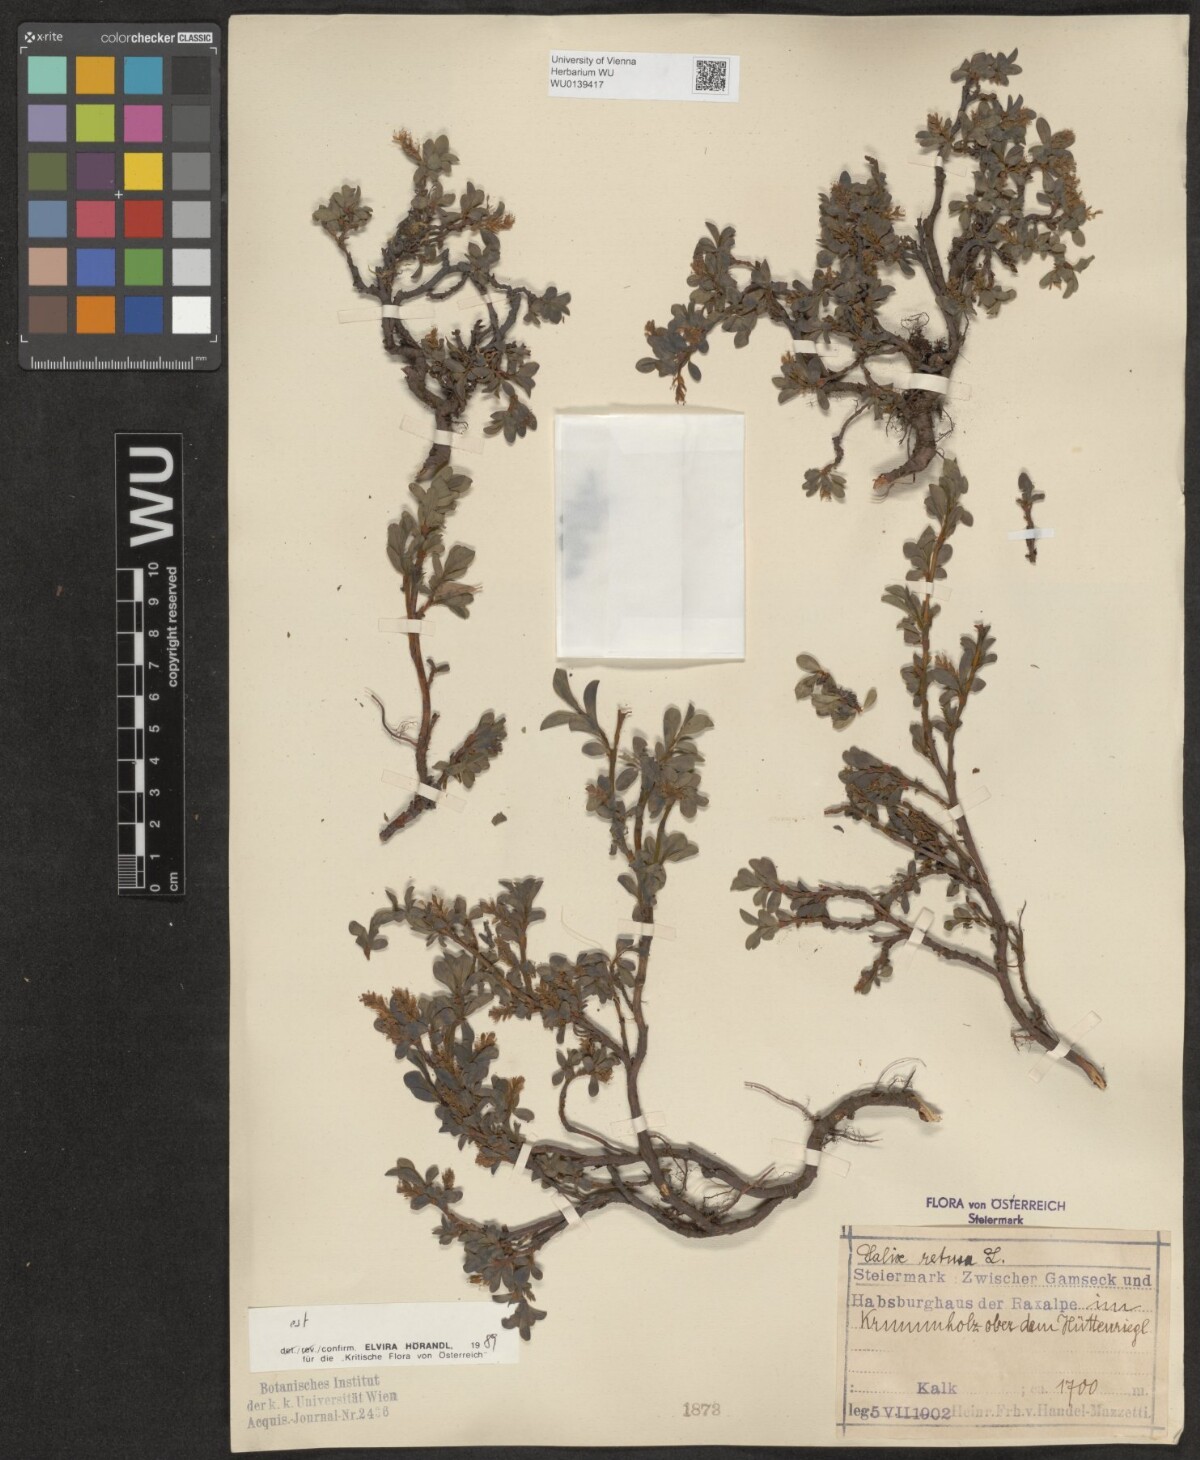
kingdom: Plantae
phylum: Tracheophyta
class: Magnoliopsida
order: Malpighiales
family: Salicaceae
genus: Salix
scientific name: Salix retusa
